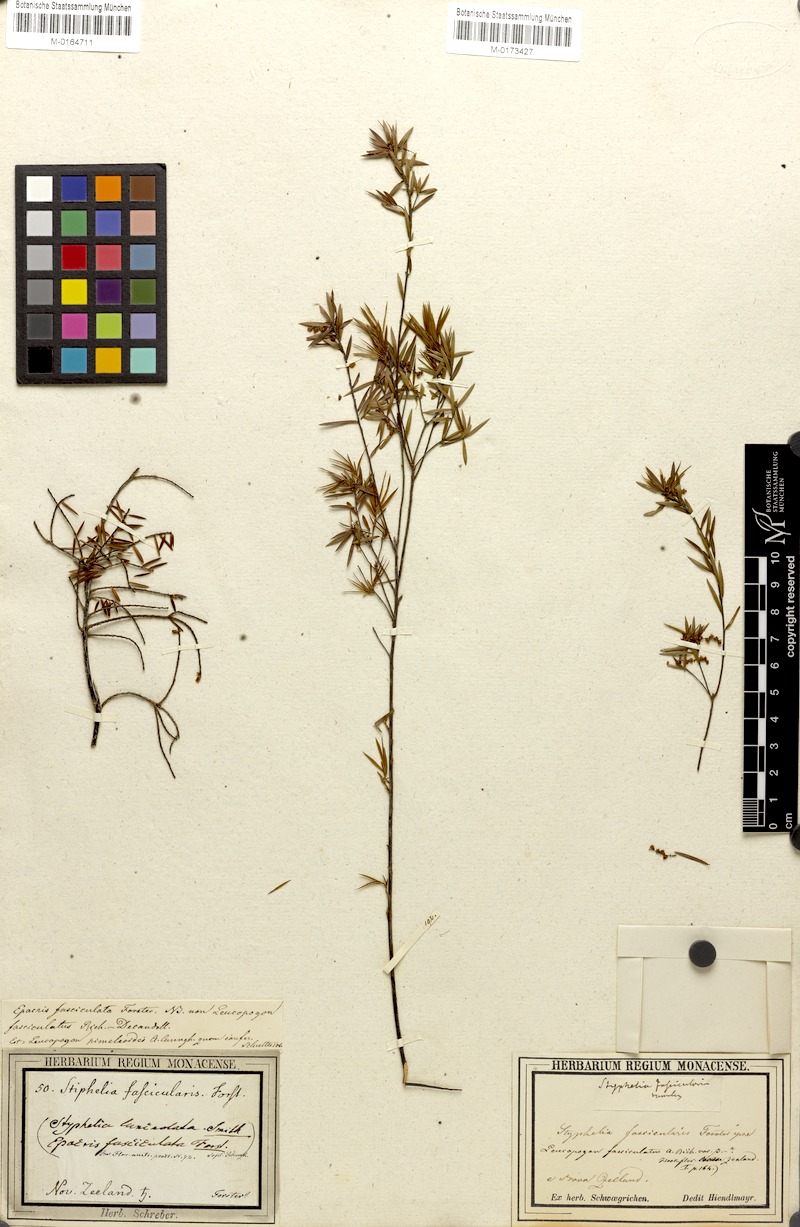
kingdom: Plantae
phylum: Tracheophyta
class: Magnoliopsida
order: Ericales
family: Ericaceae
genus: Leucopogon
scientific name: Leucopogon fasciculatus
